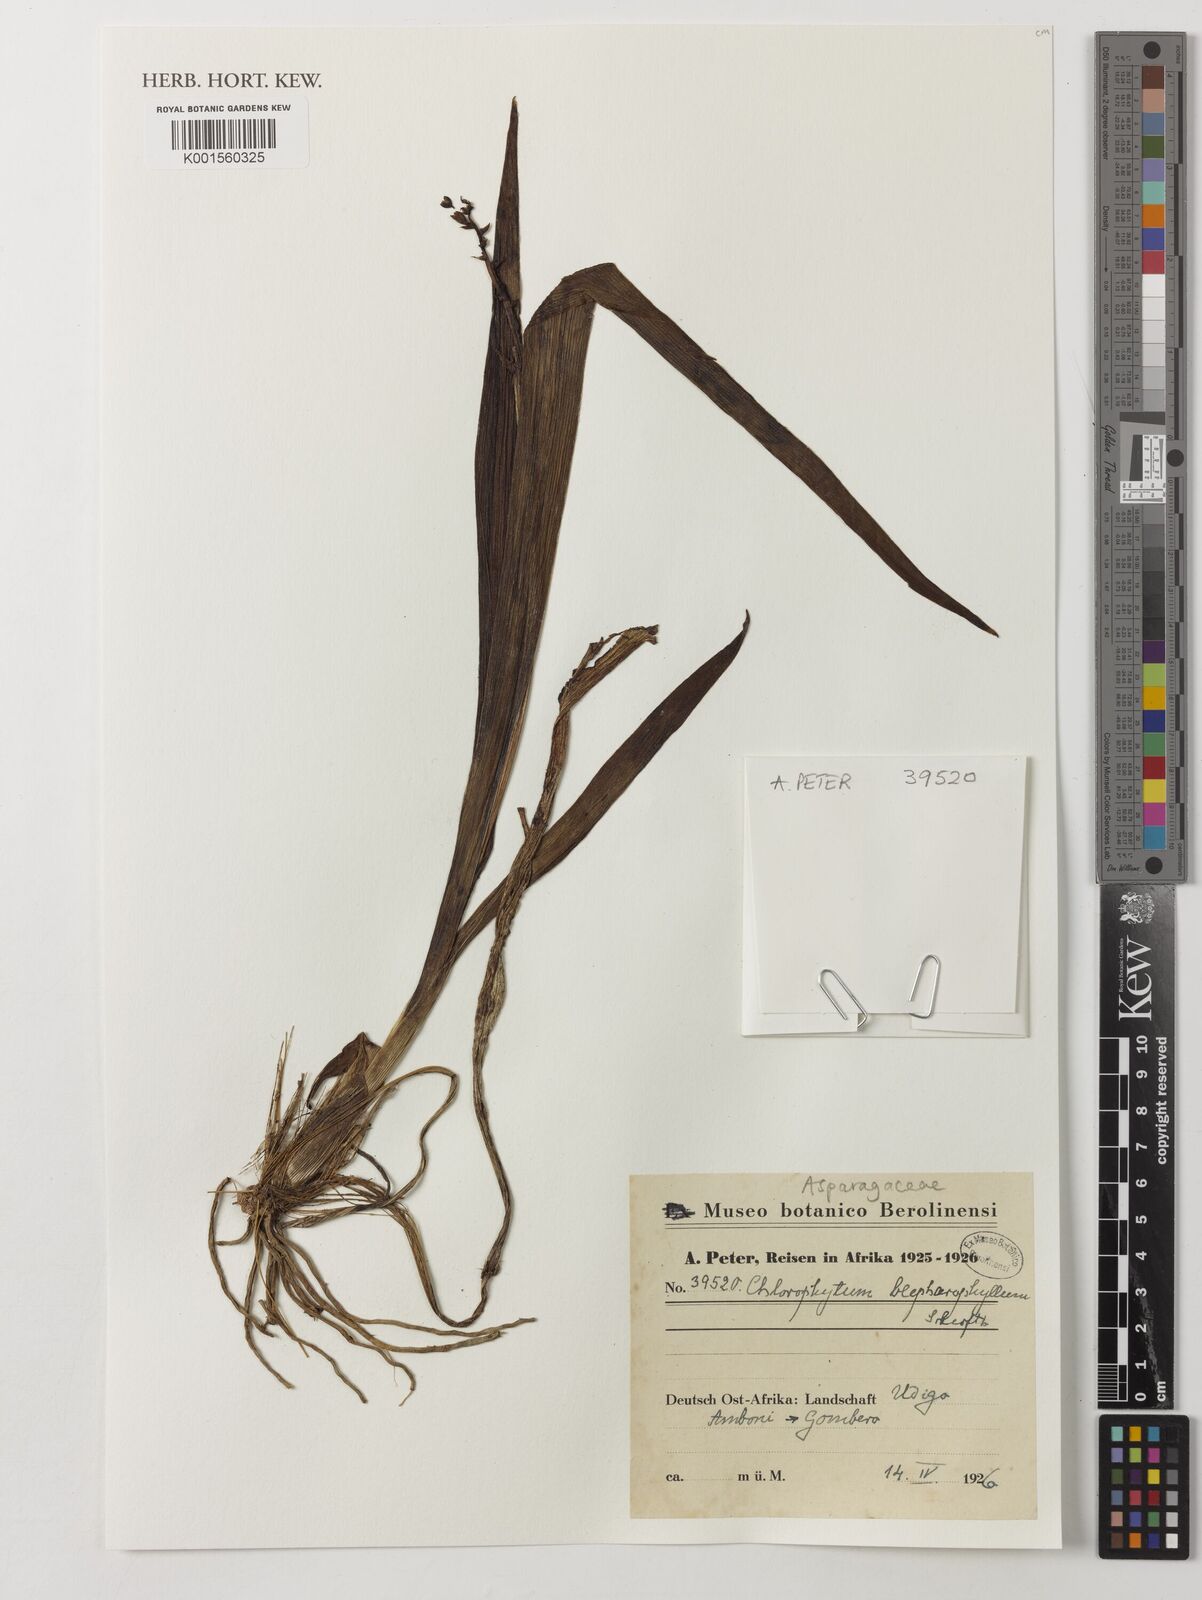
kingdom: Plantae
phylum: Tracheophyta
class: Liliopsida
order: Asparagales
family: Asparagaceae
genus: Chlorophytum
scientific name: Chlorophytum blepharophyllum
